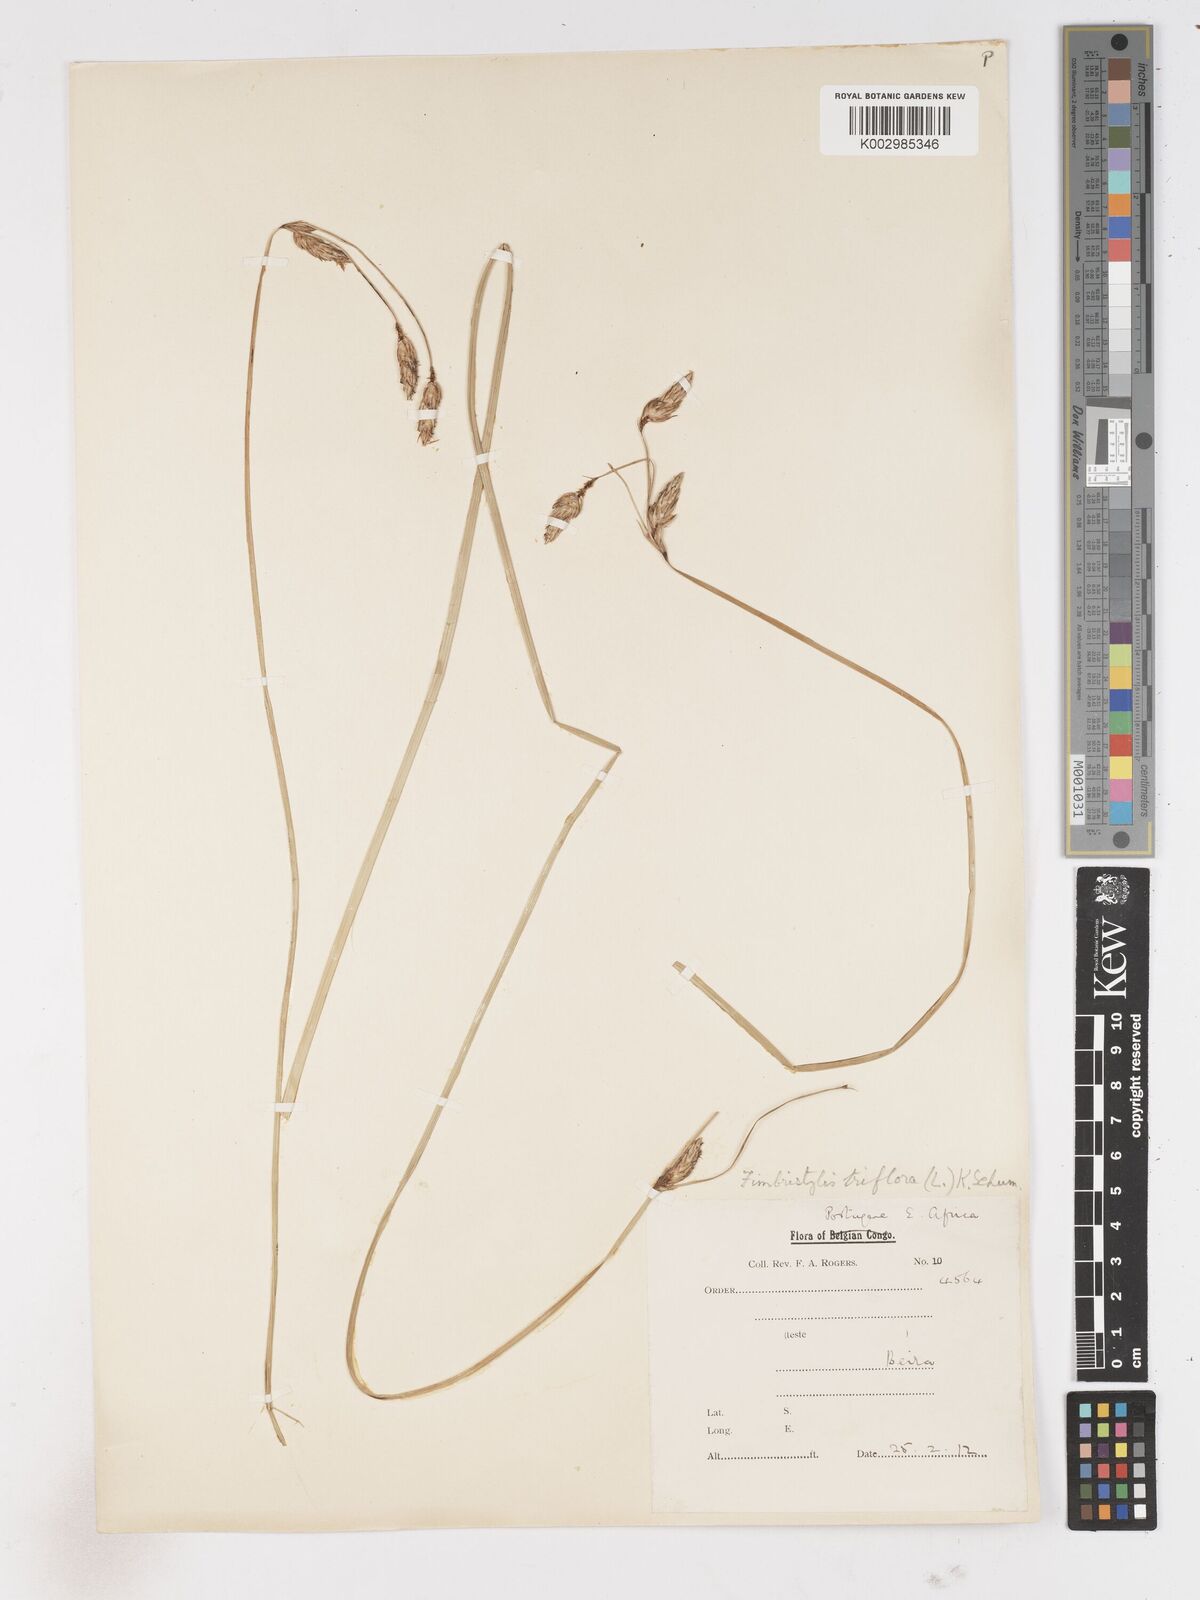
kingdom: Plantae
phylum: Tracheophyta
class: Liliopsida
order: Poales
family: Cyperaceae
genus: Abildgaardia
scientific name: Abildgaardia triflora
